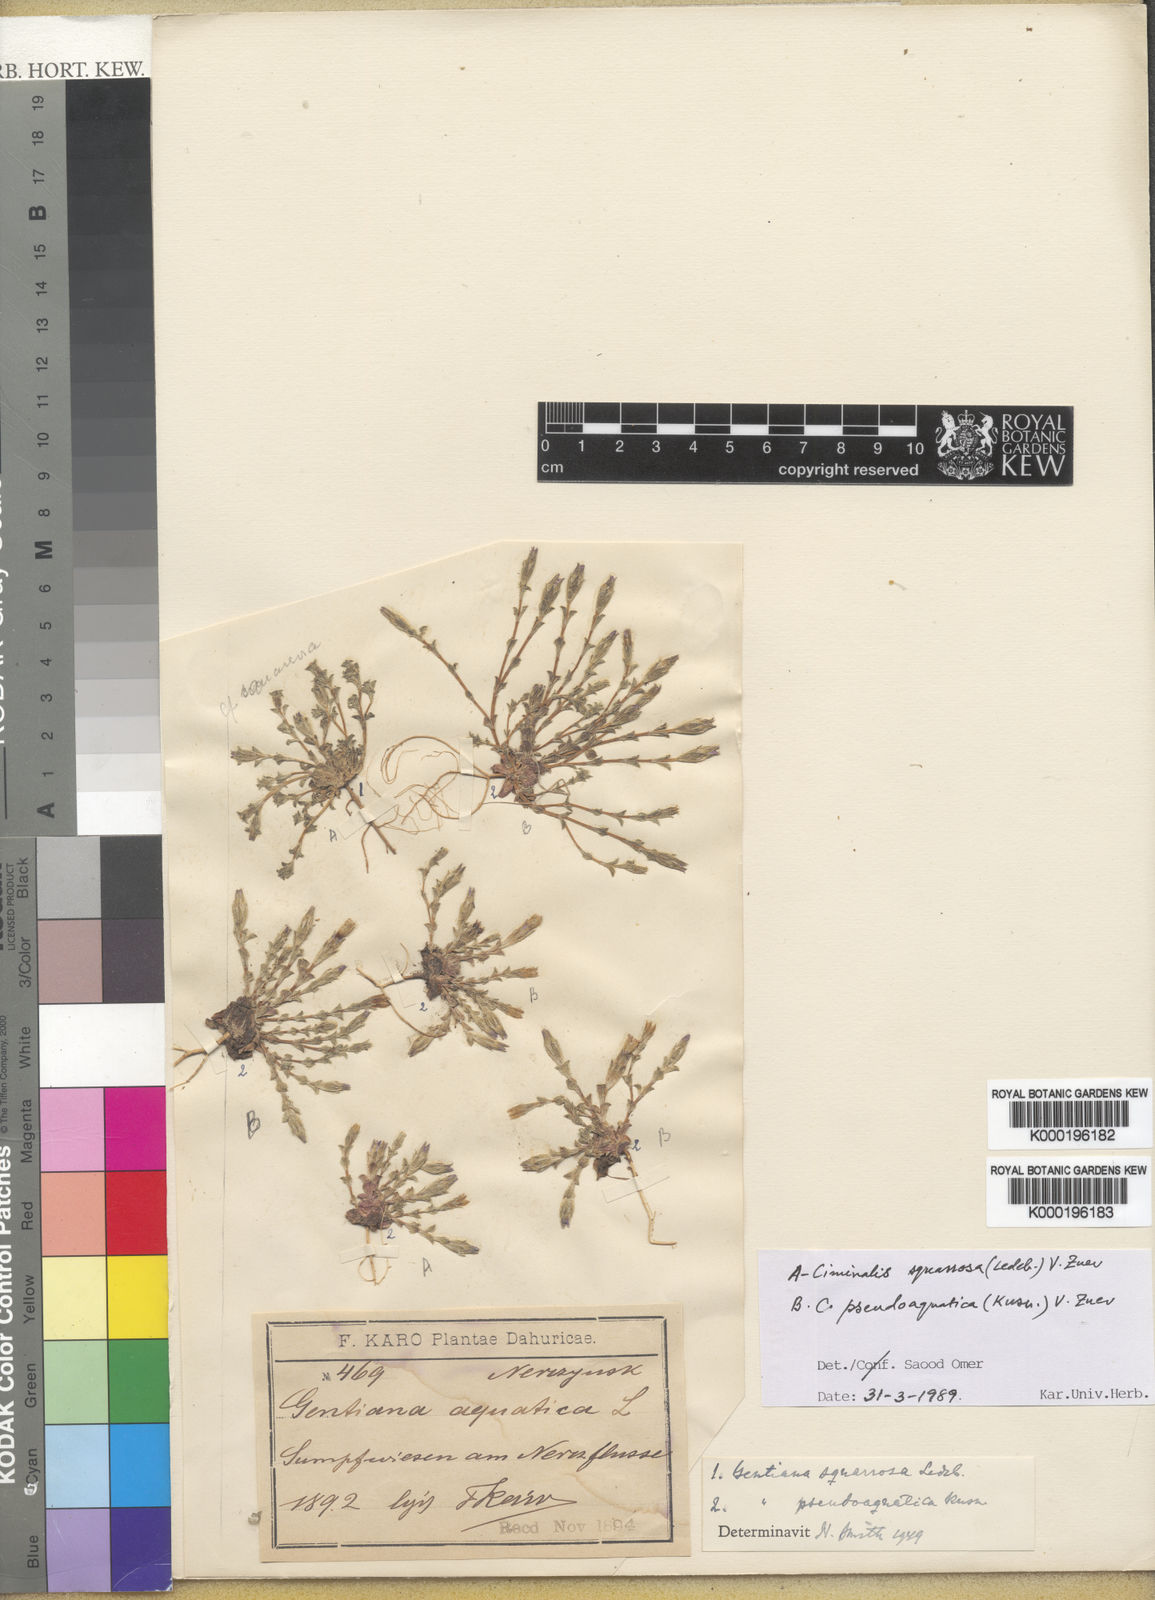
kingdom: Plantae
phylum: Tracheophyta
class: Magnoliopsida
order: Gentianales
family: Gentianaceae
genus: Gentiana
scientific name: Gentiana squarrosa
